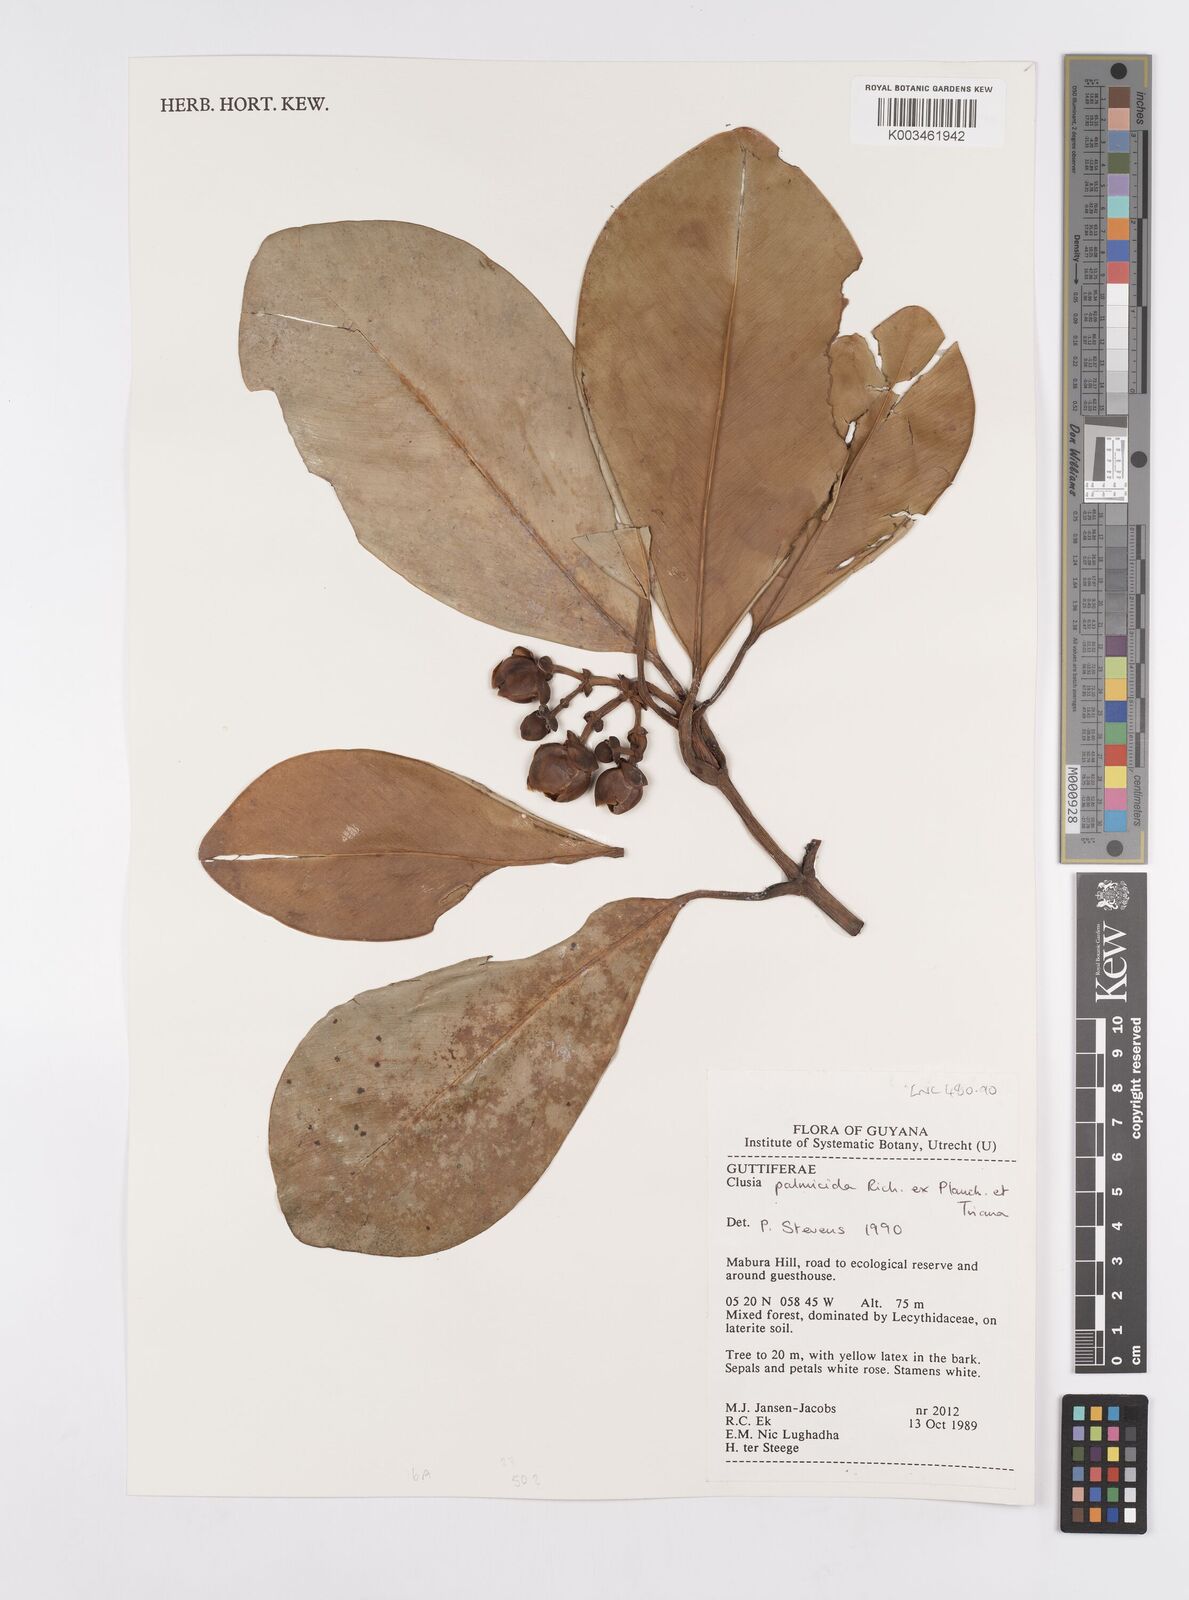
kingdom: Plantae
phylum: Tracheophyta
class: Magnoliopsida
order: Malpighiales
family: Clusiaceae
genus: Clusia
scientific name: Clusia palmicida
